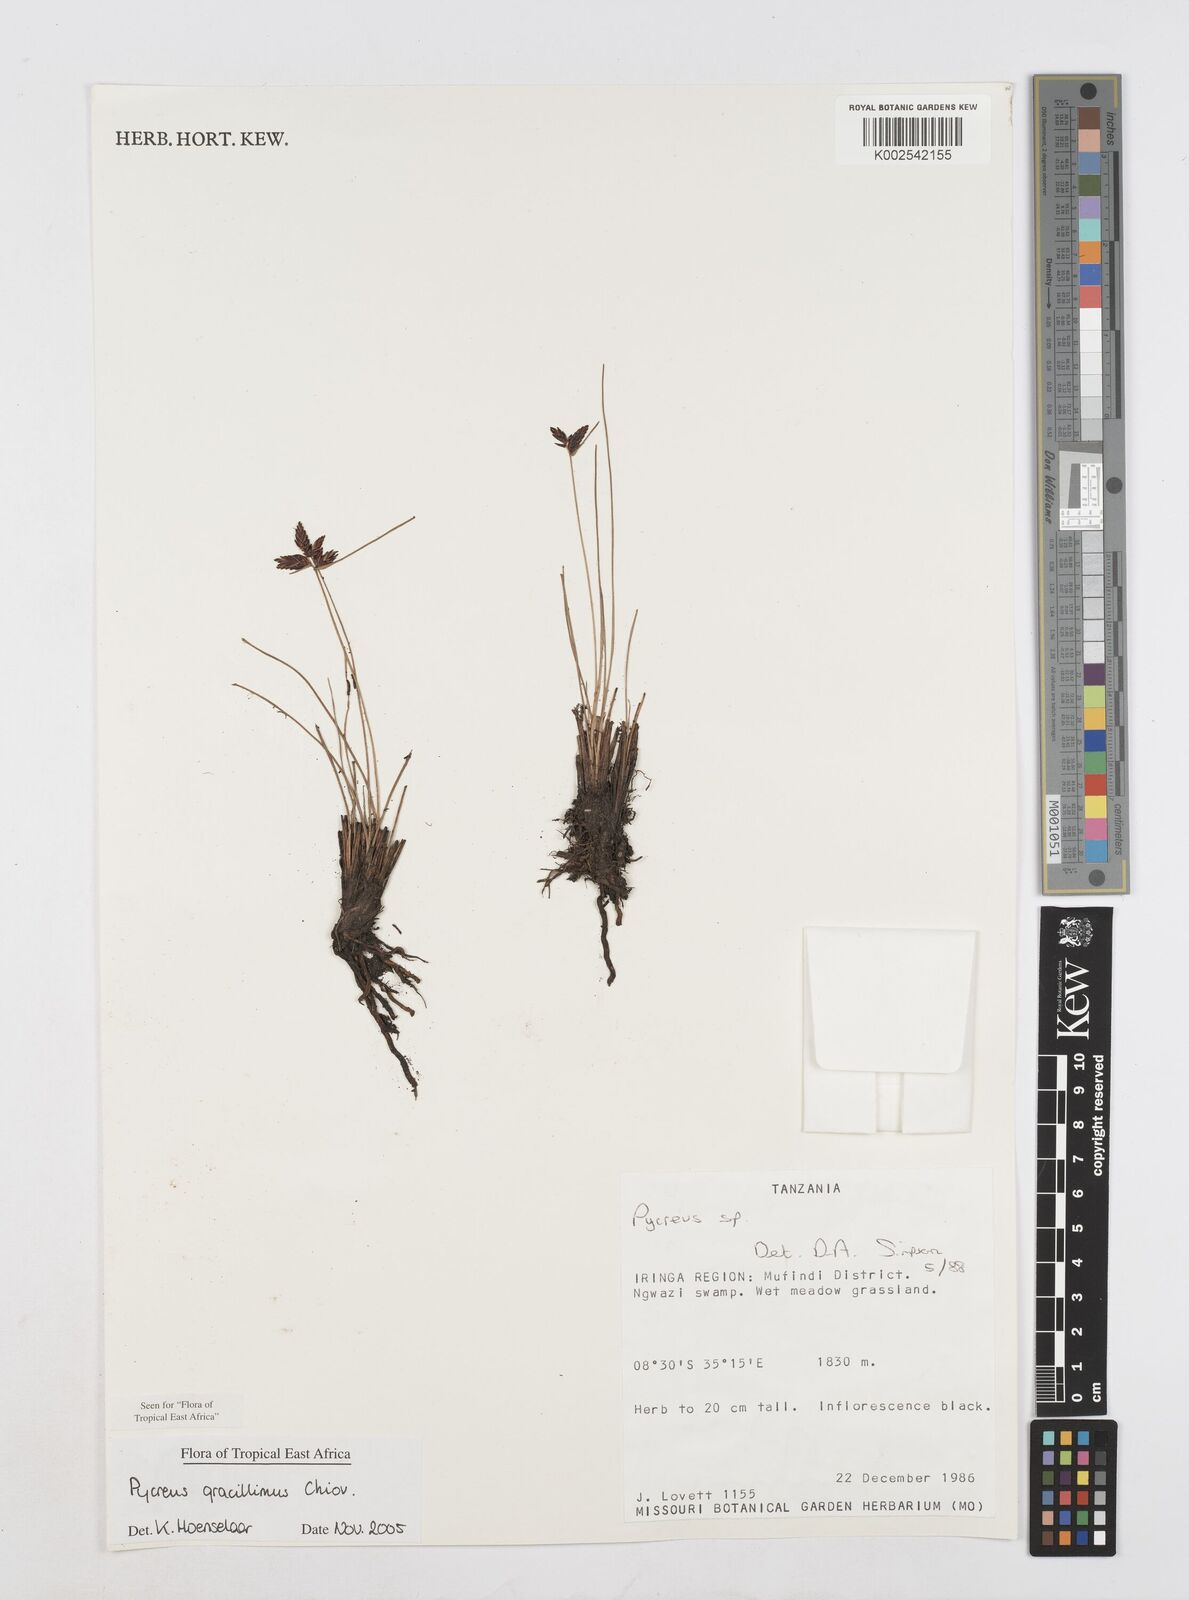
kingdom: Plantae
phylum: Tracheophyta
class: Liliopsida
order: Poales
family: Cyperaceae
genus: Cyperus
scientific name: Cyperus gracillimus
